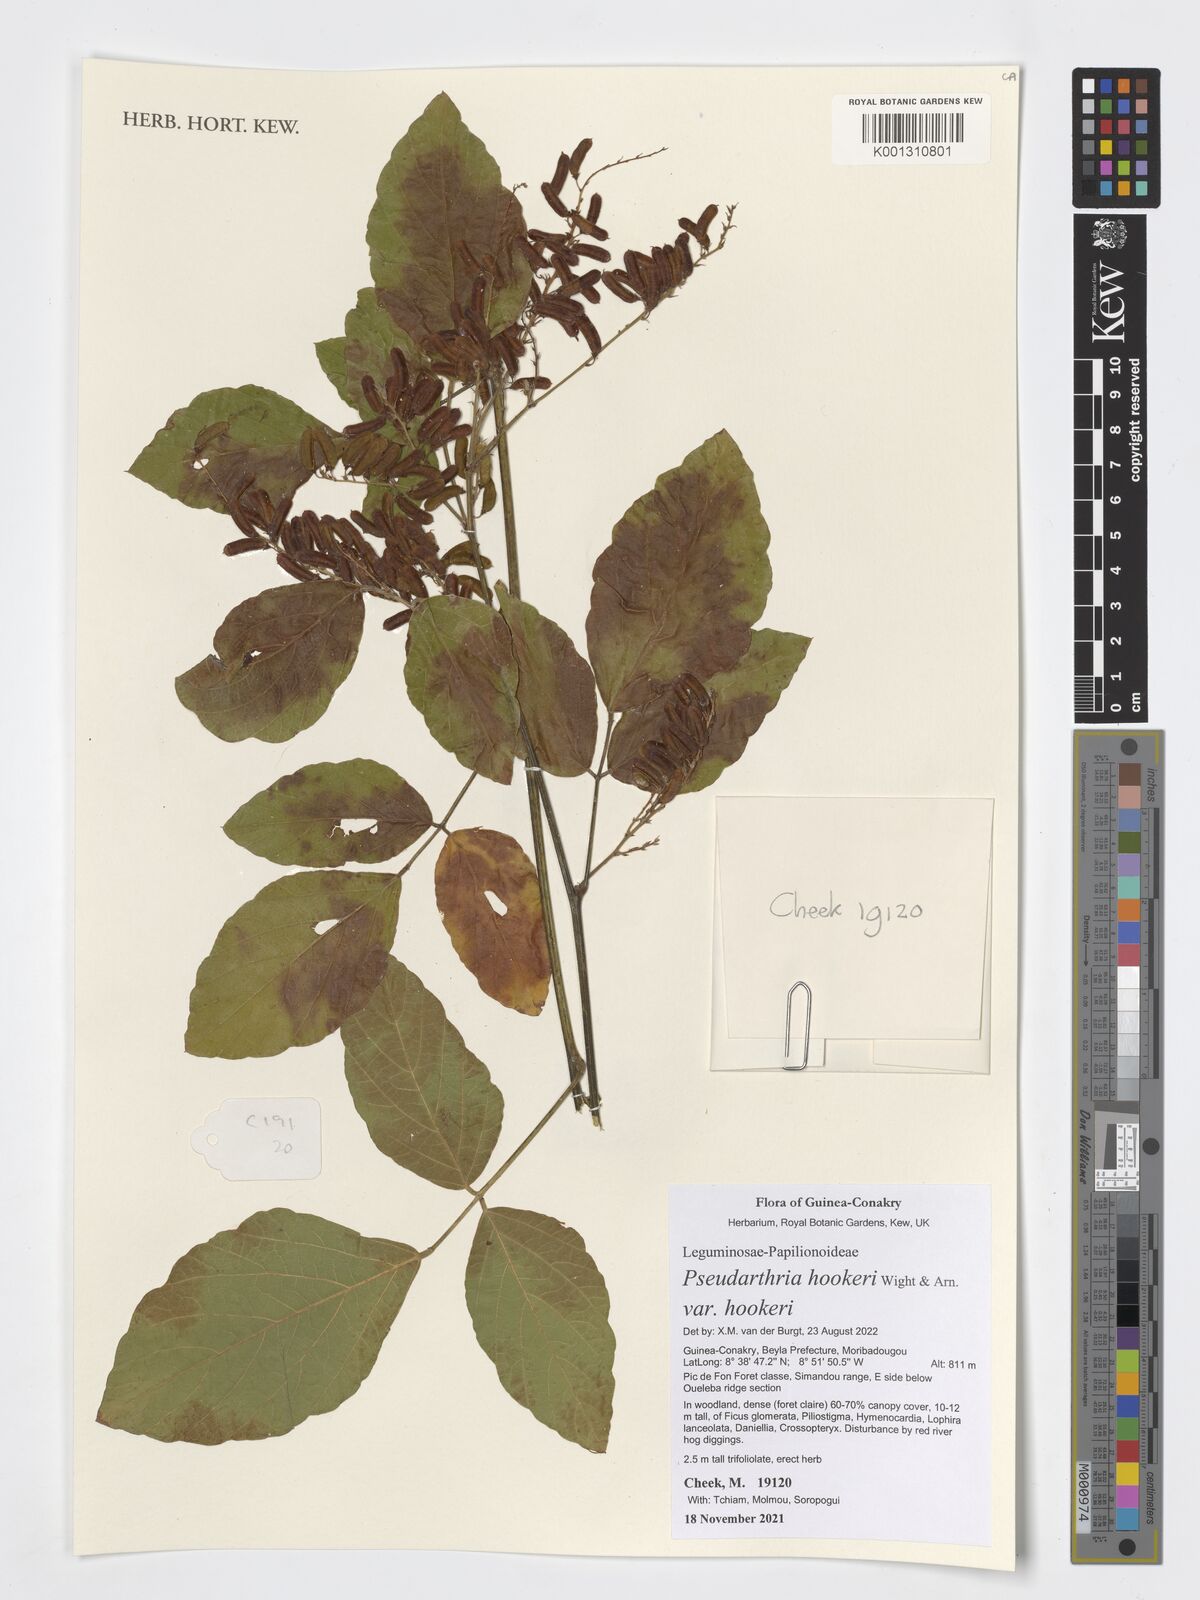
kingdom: Plantae
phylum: Tracheophyta
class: Magnoliopsida
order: Fabales
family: Fabaceae
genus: Pseudarthria
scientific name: Pseudarthria hookeri
